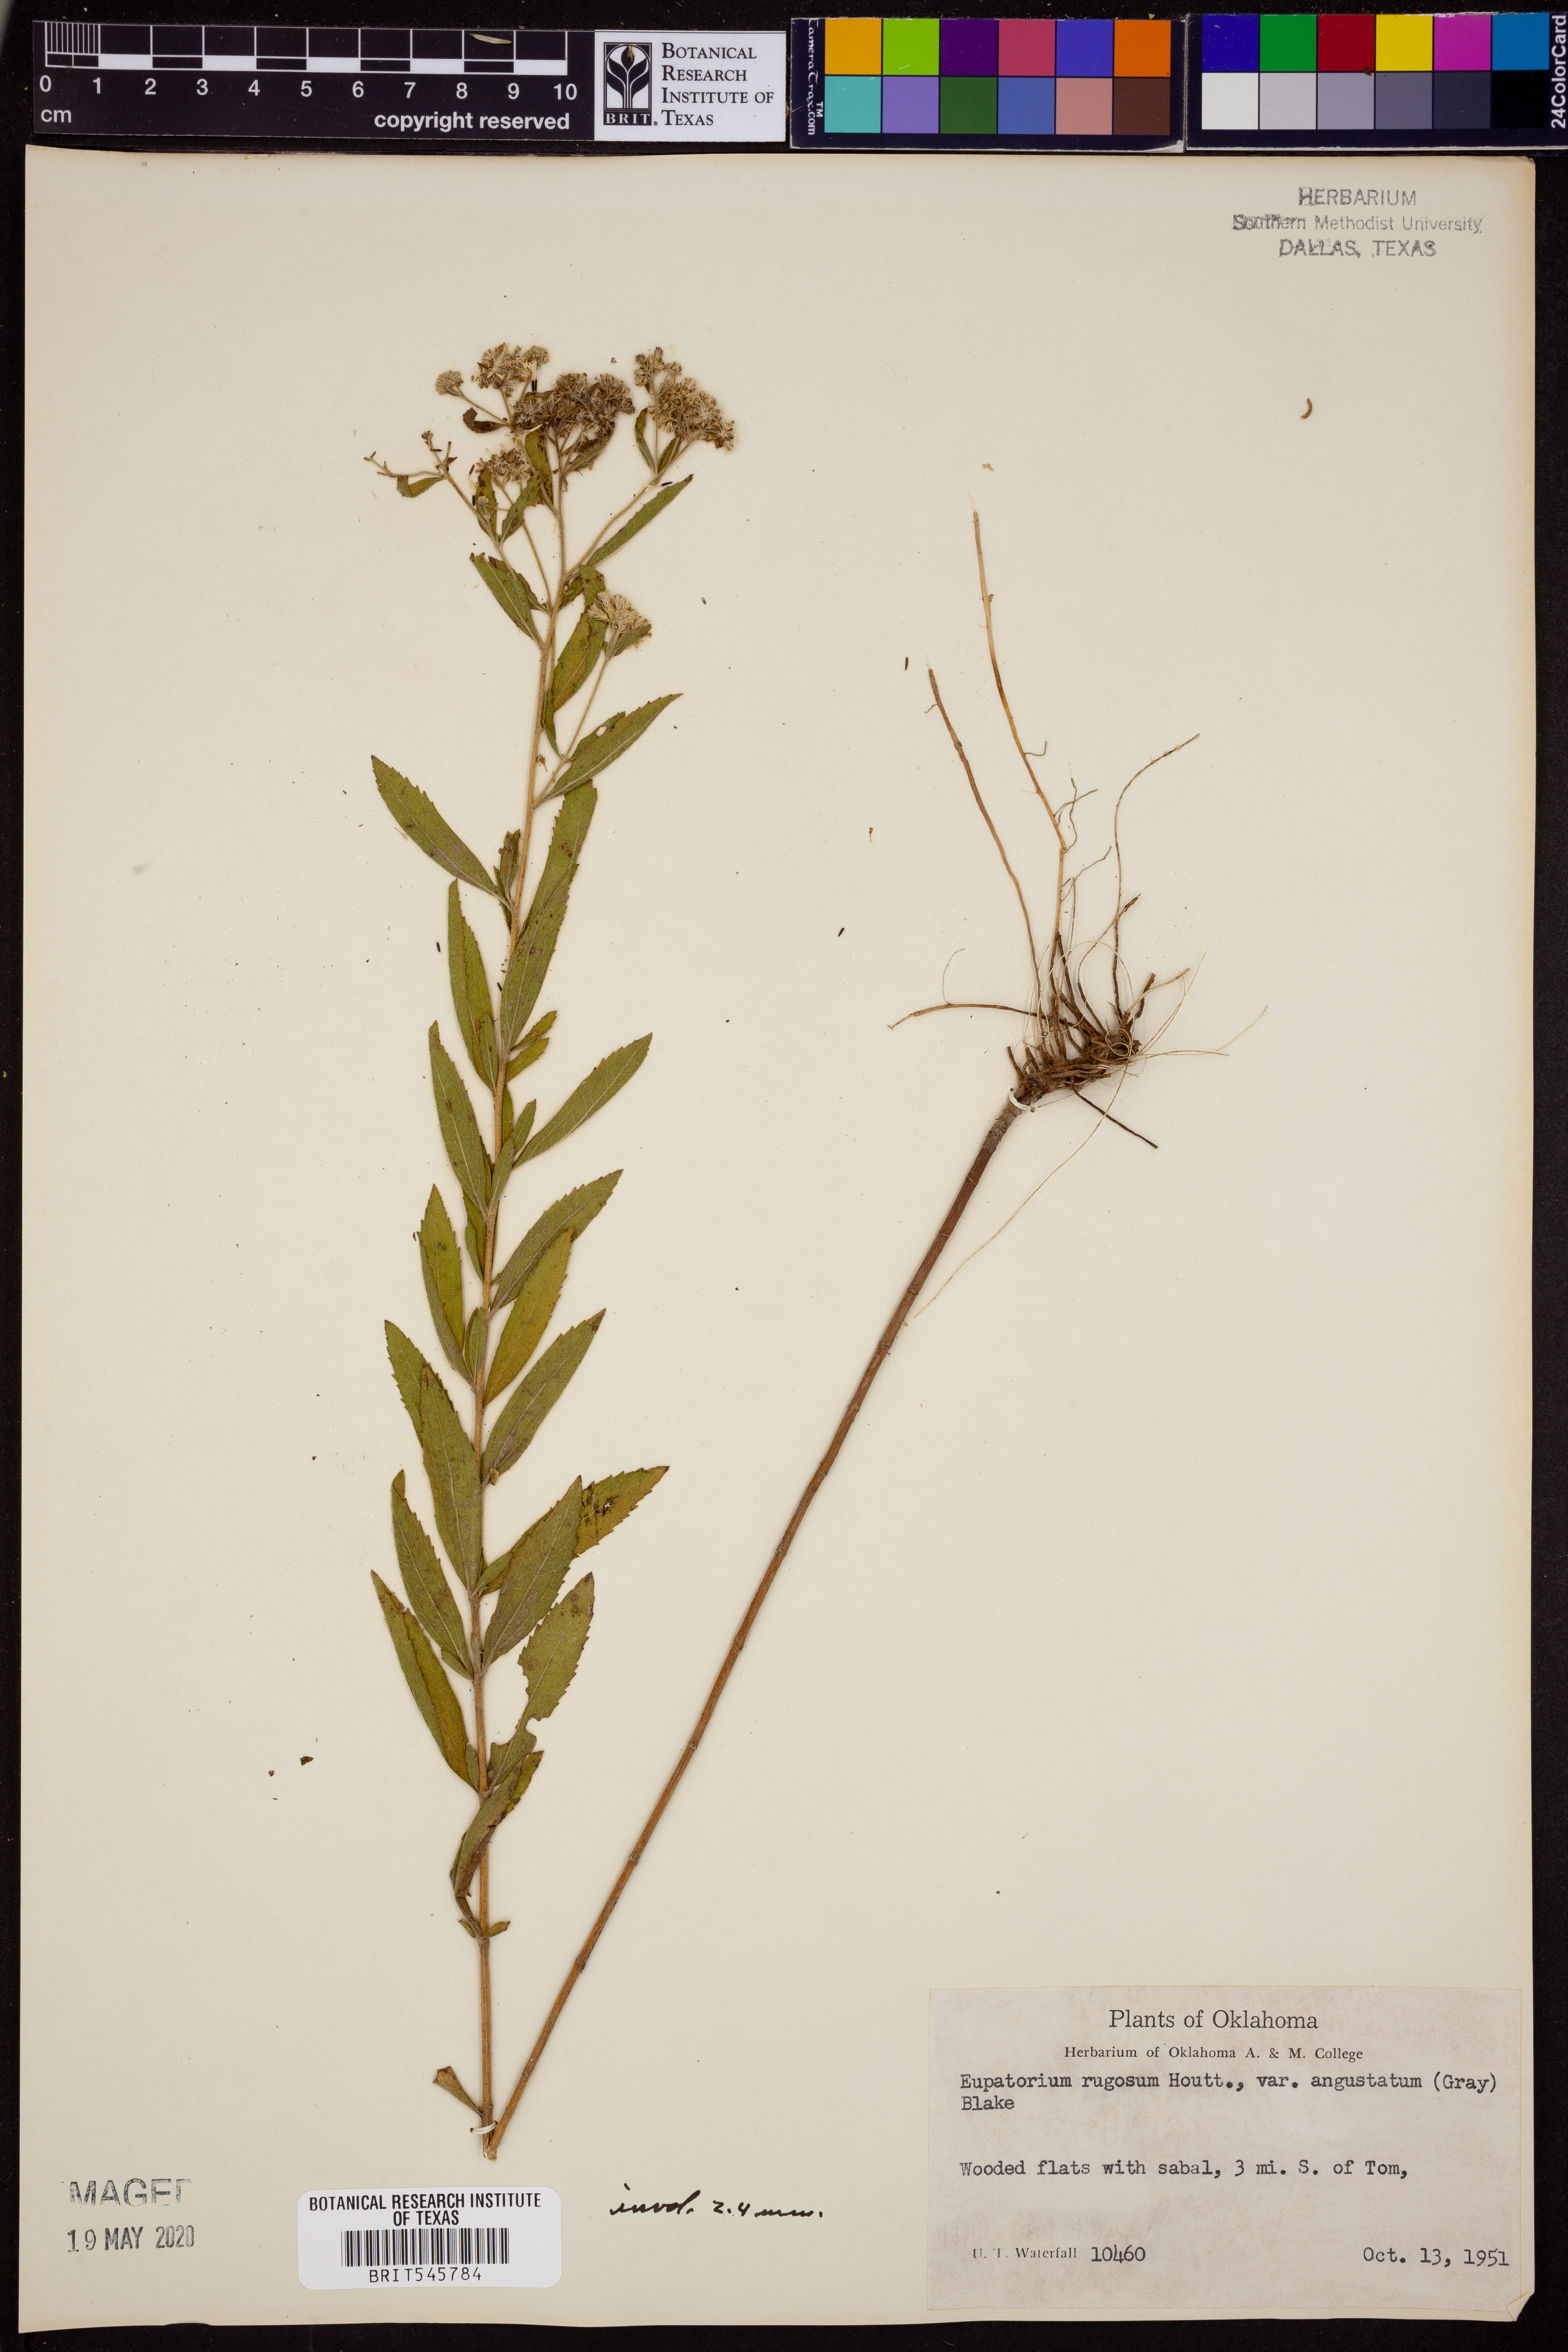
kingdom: Plantae
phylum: Tracheophyta
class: Magnoliopsida
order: Asterales
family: Asteraceae
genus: Ageratina
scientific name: Ageratina altissima
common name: White snakeroot
